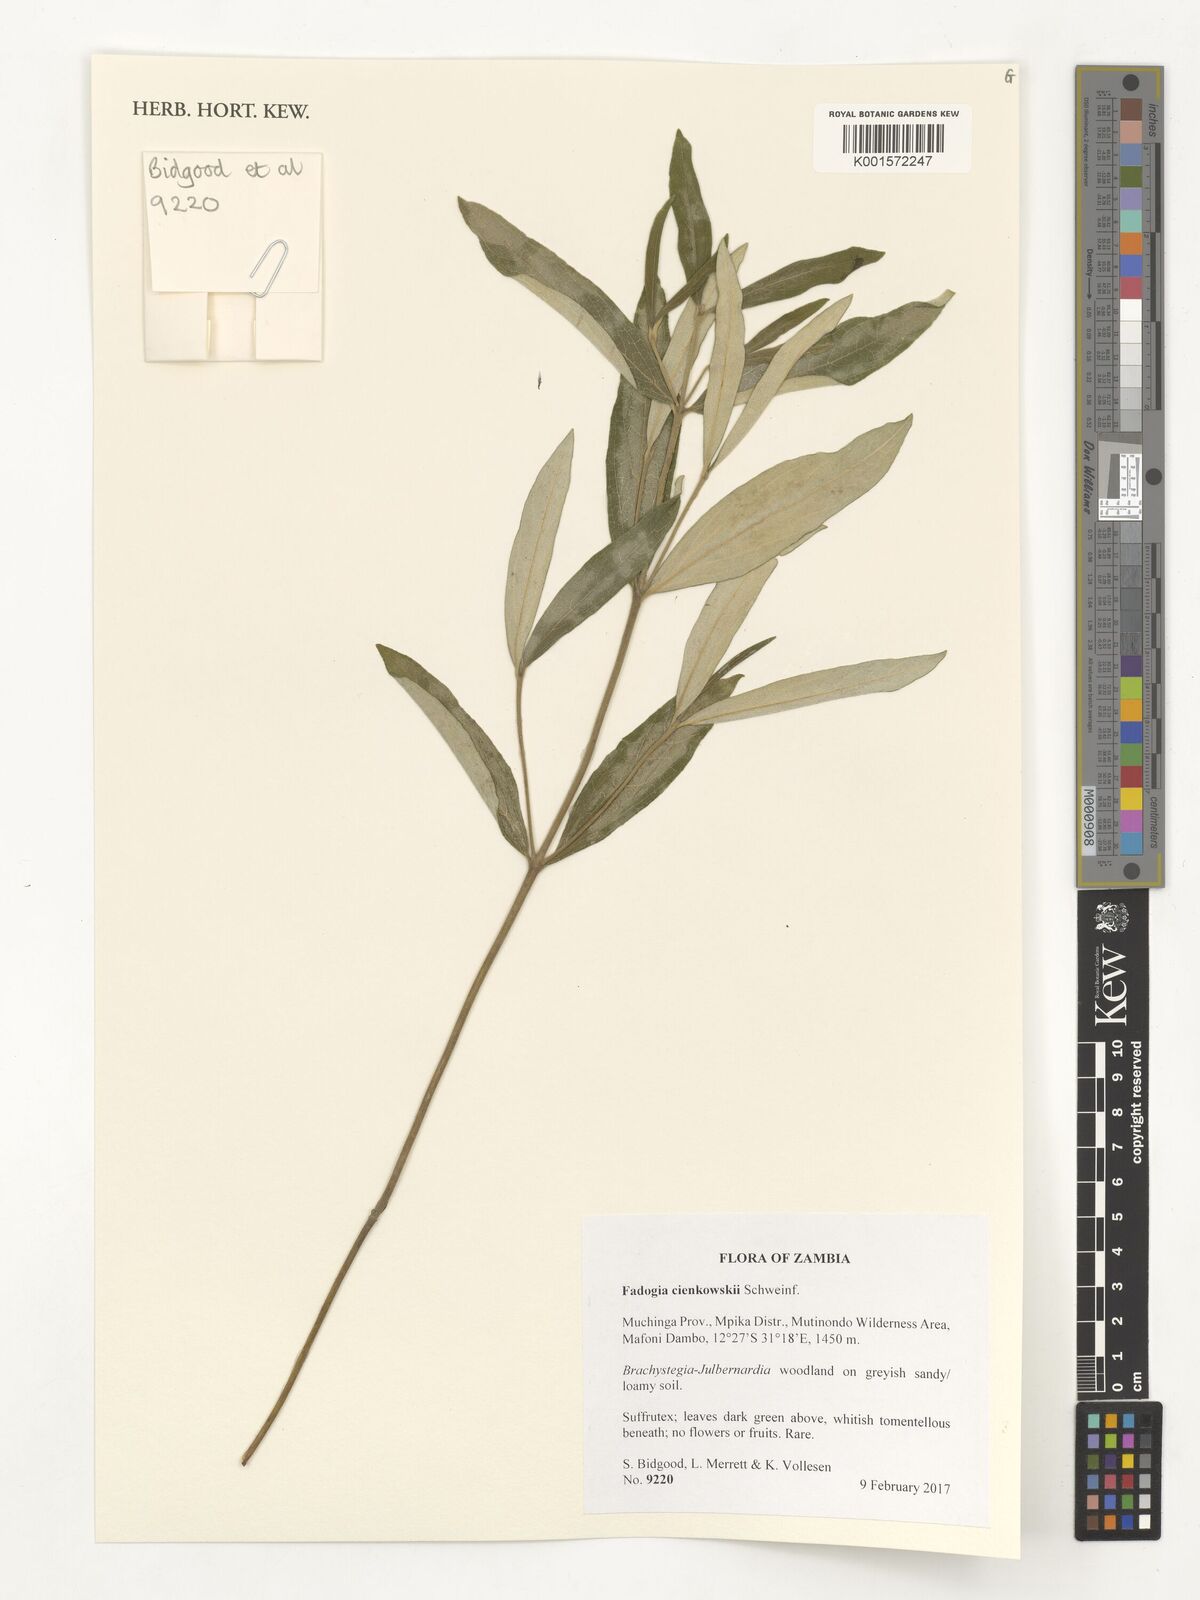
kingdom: Plantae
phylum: Tracheophyta
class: Magnoliopsida
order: Gentianales
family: Rubiaceae
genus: Fadogia
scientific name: Fadogia cienkowskii
